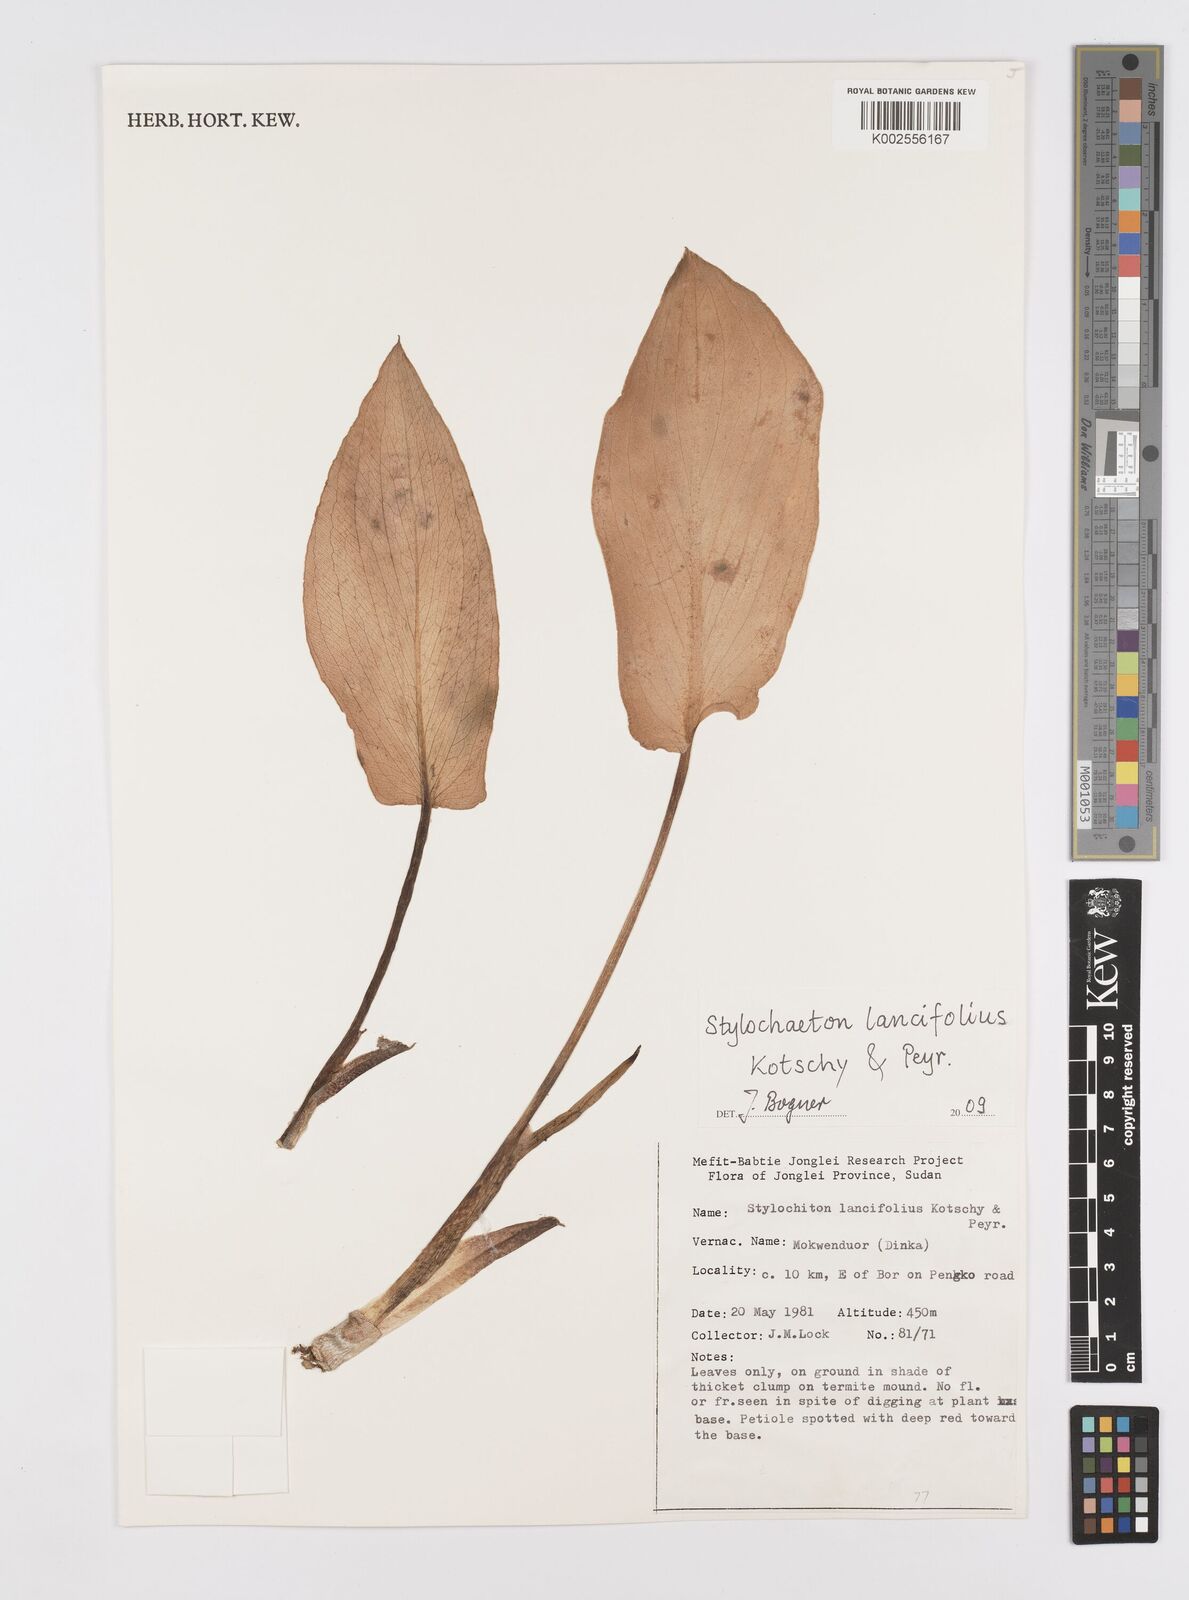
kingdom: Plantae
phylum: Tracheophyta
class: Liliopsida
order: Alismatales
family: Araceae
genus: Stylochaeton
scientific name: Stylochaeton lancifolium
